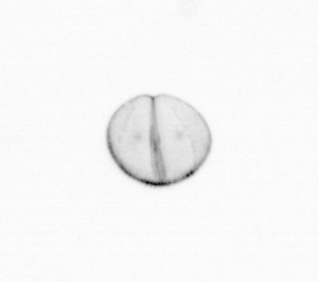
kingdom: Chromista
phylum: Ochrophyta
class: Bacillariophyceae
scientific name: Bacillariophyceae
